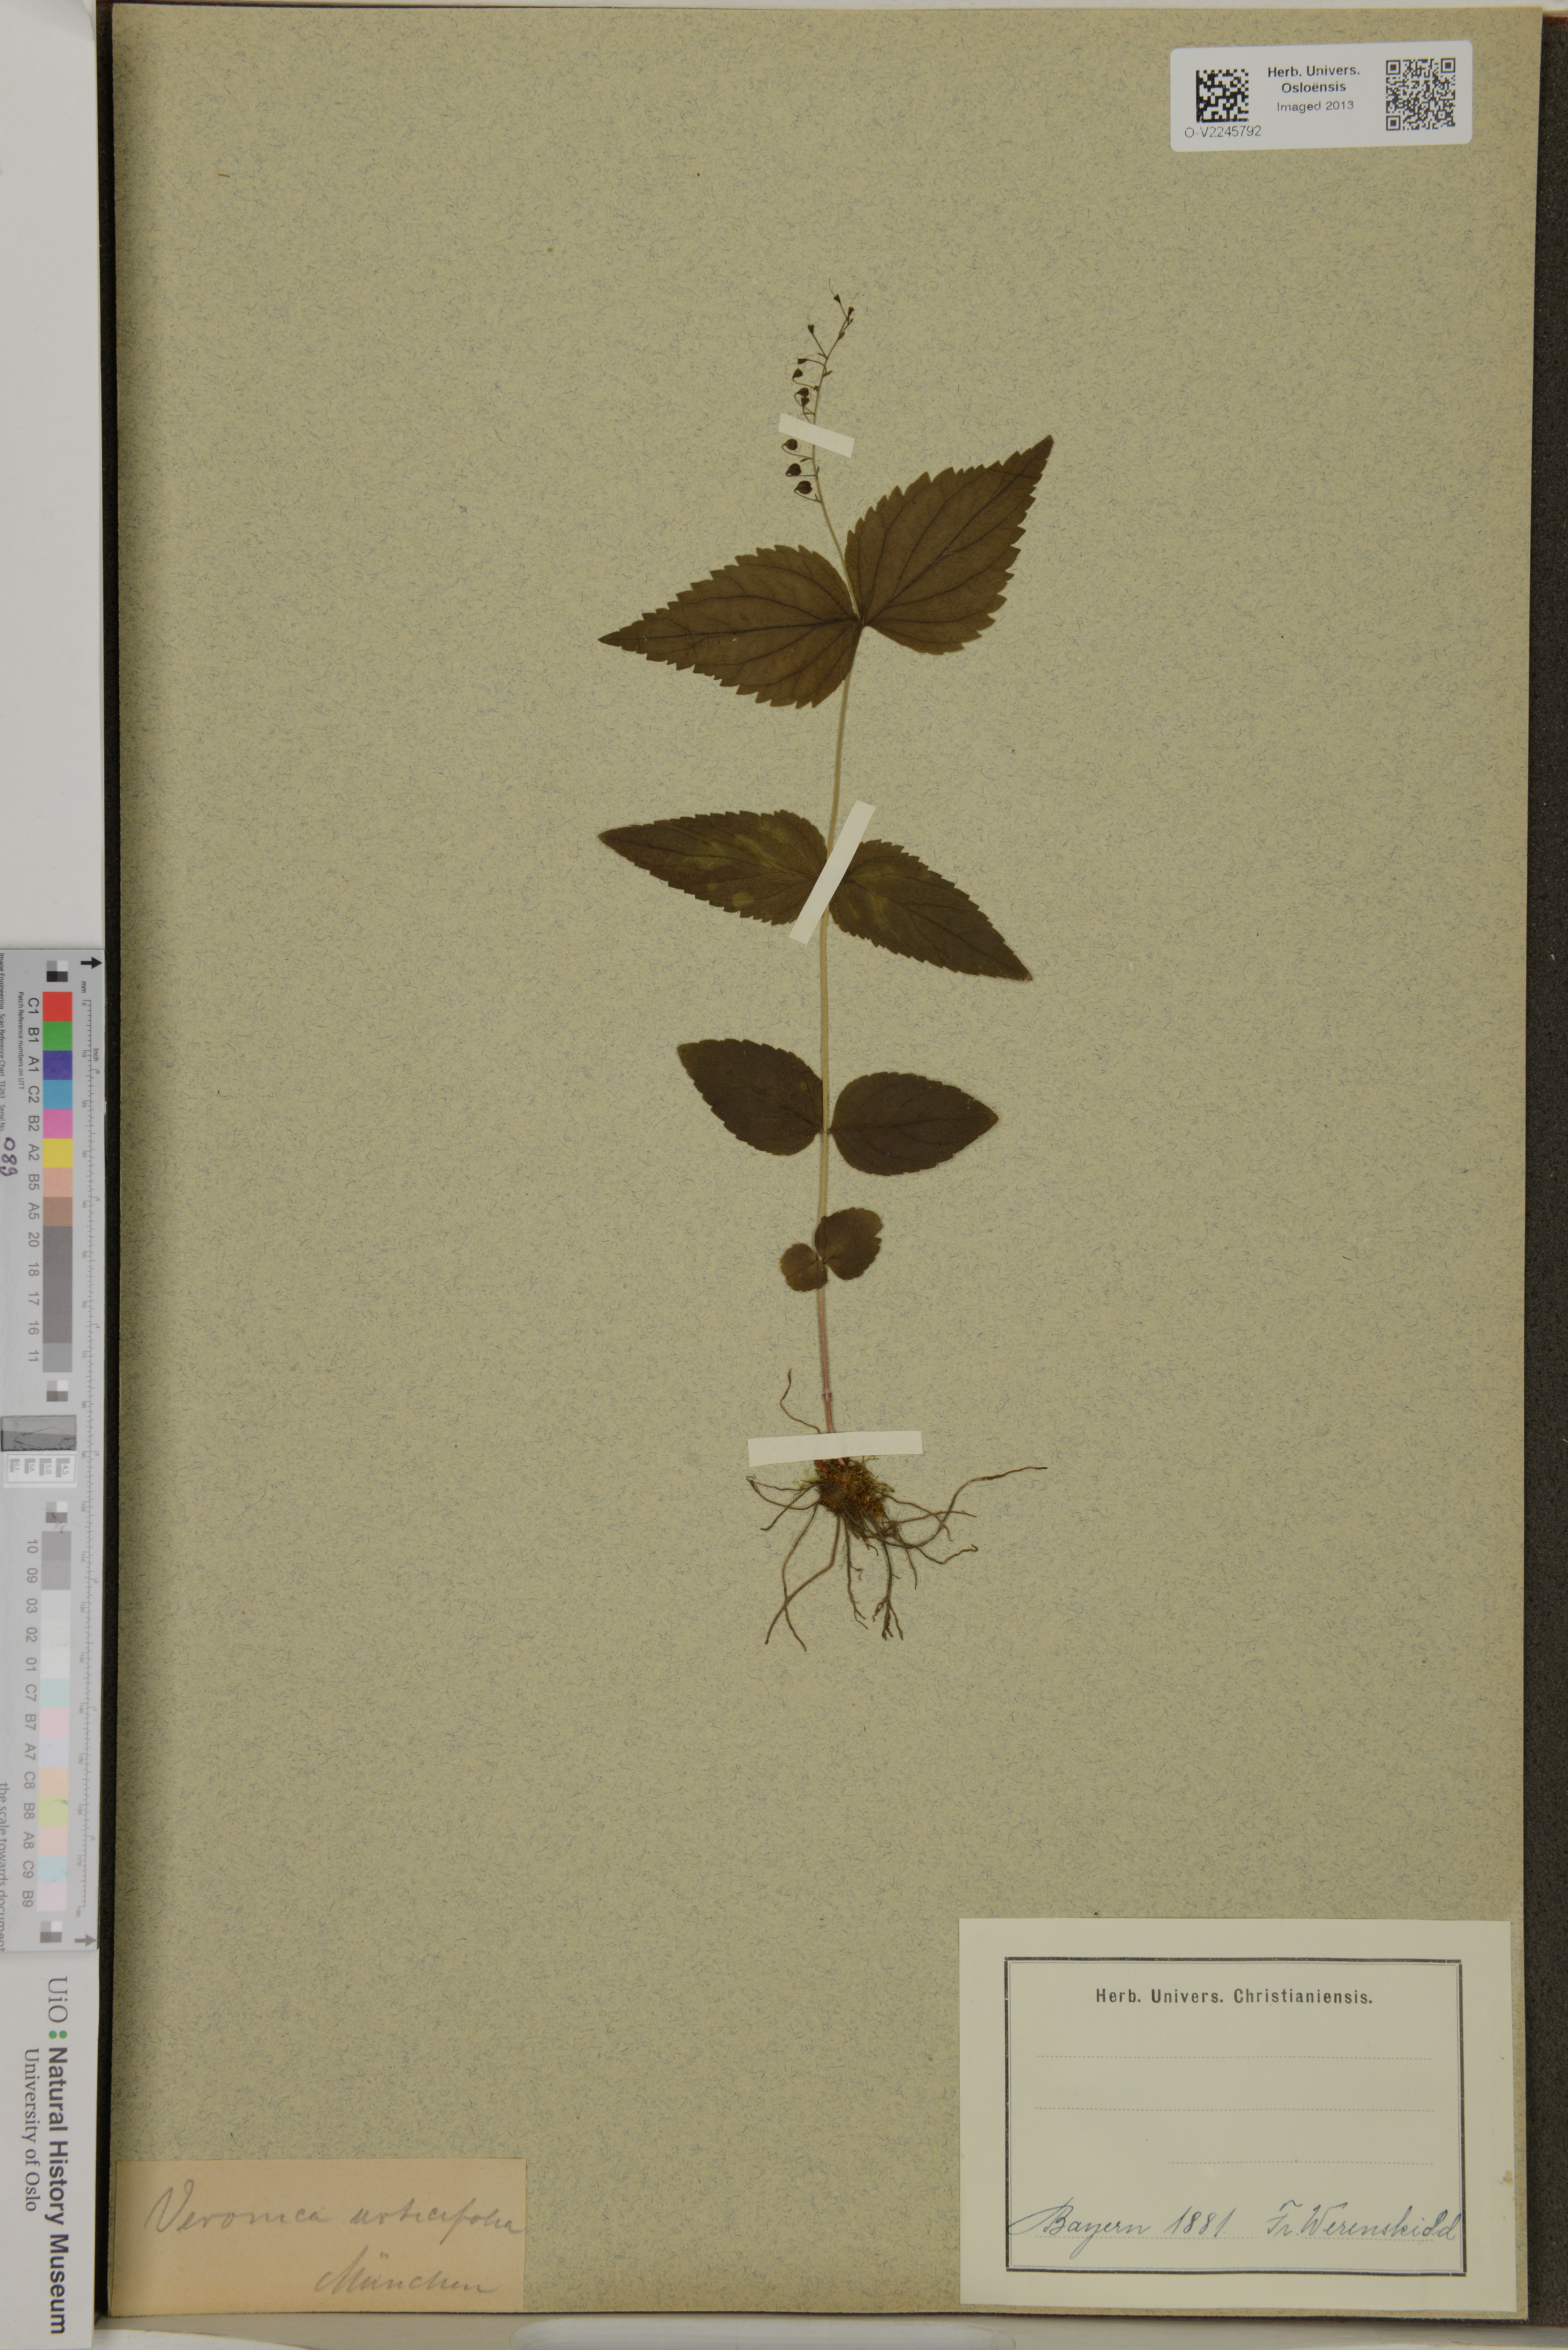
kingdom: Plantae
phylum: Tracheophyta
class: Magnoliopsida
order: Lamiales
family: Plantaginaceae
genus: Veronica
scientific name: Veronica urticifolia
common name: Nettle-leaf speedwell
